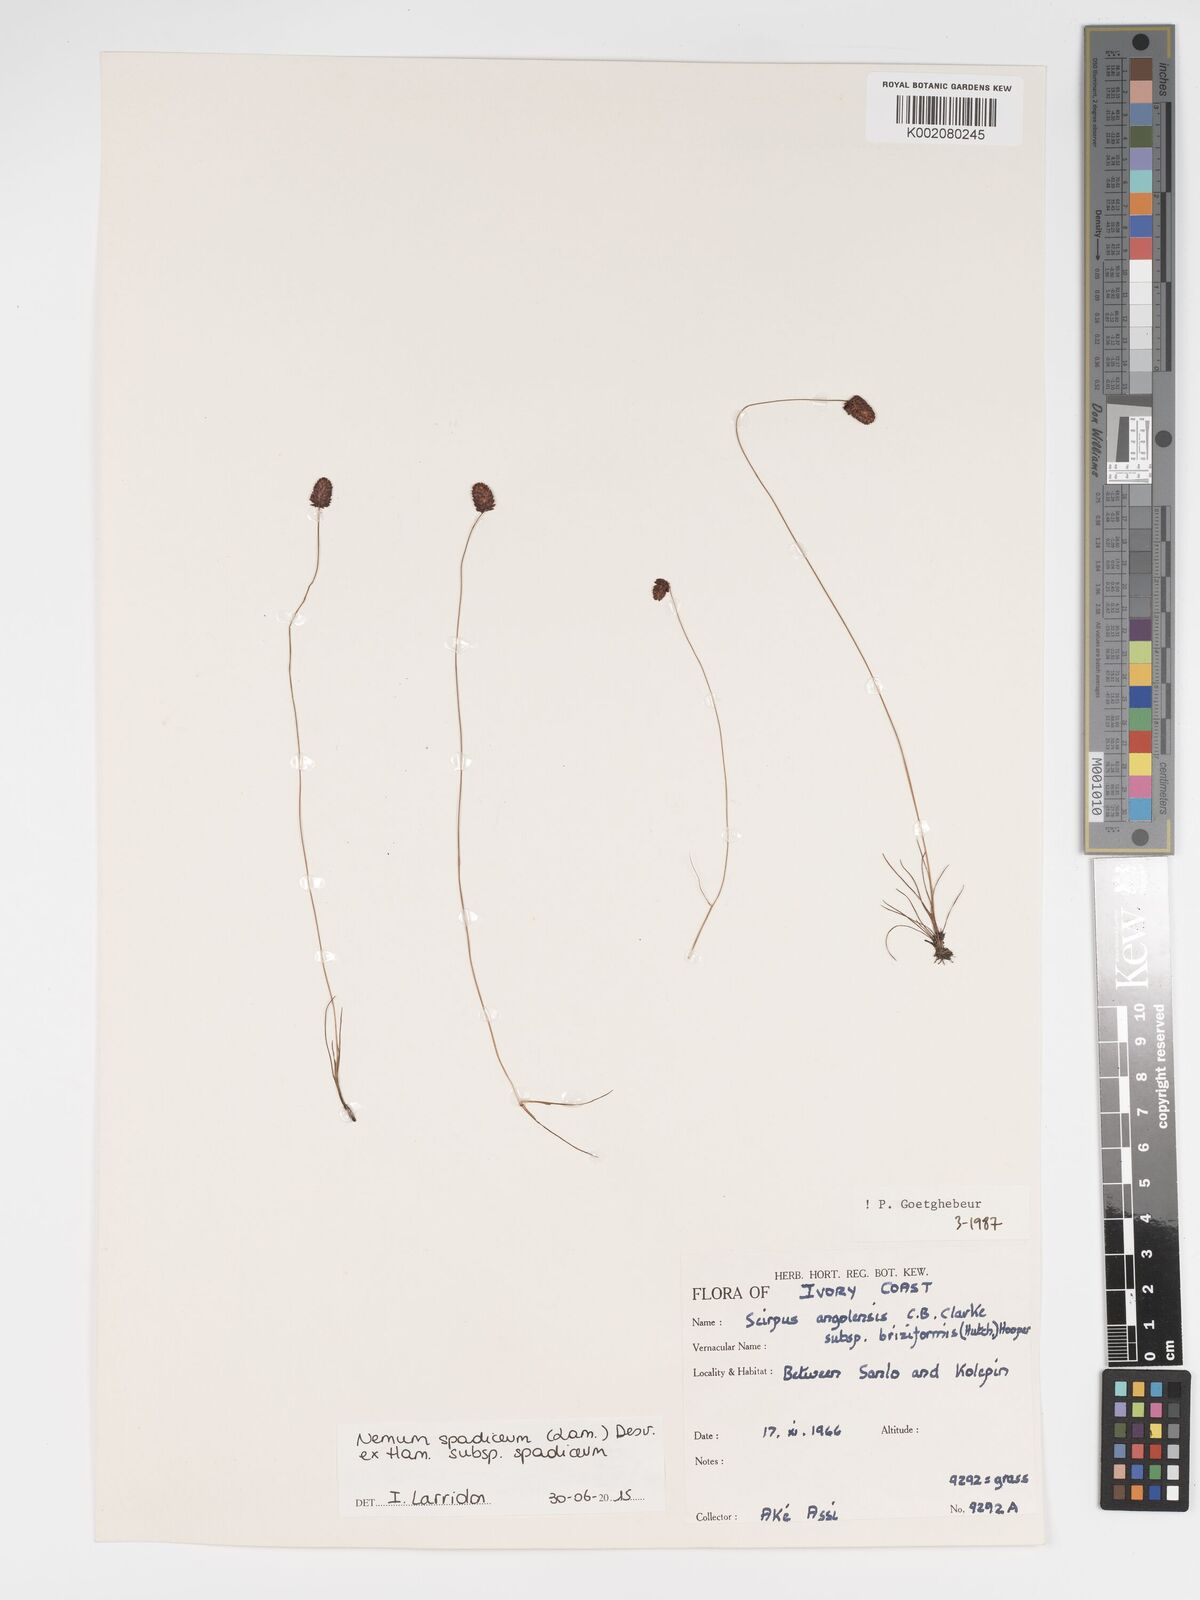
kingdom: Plantae
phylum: Tracheophyta
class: Liliopsida
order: Poales
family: Cyperaceae
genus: Bulbostylis
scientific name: Bulbostylis briziformis
